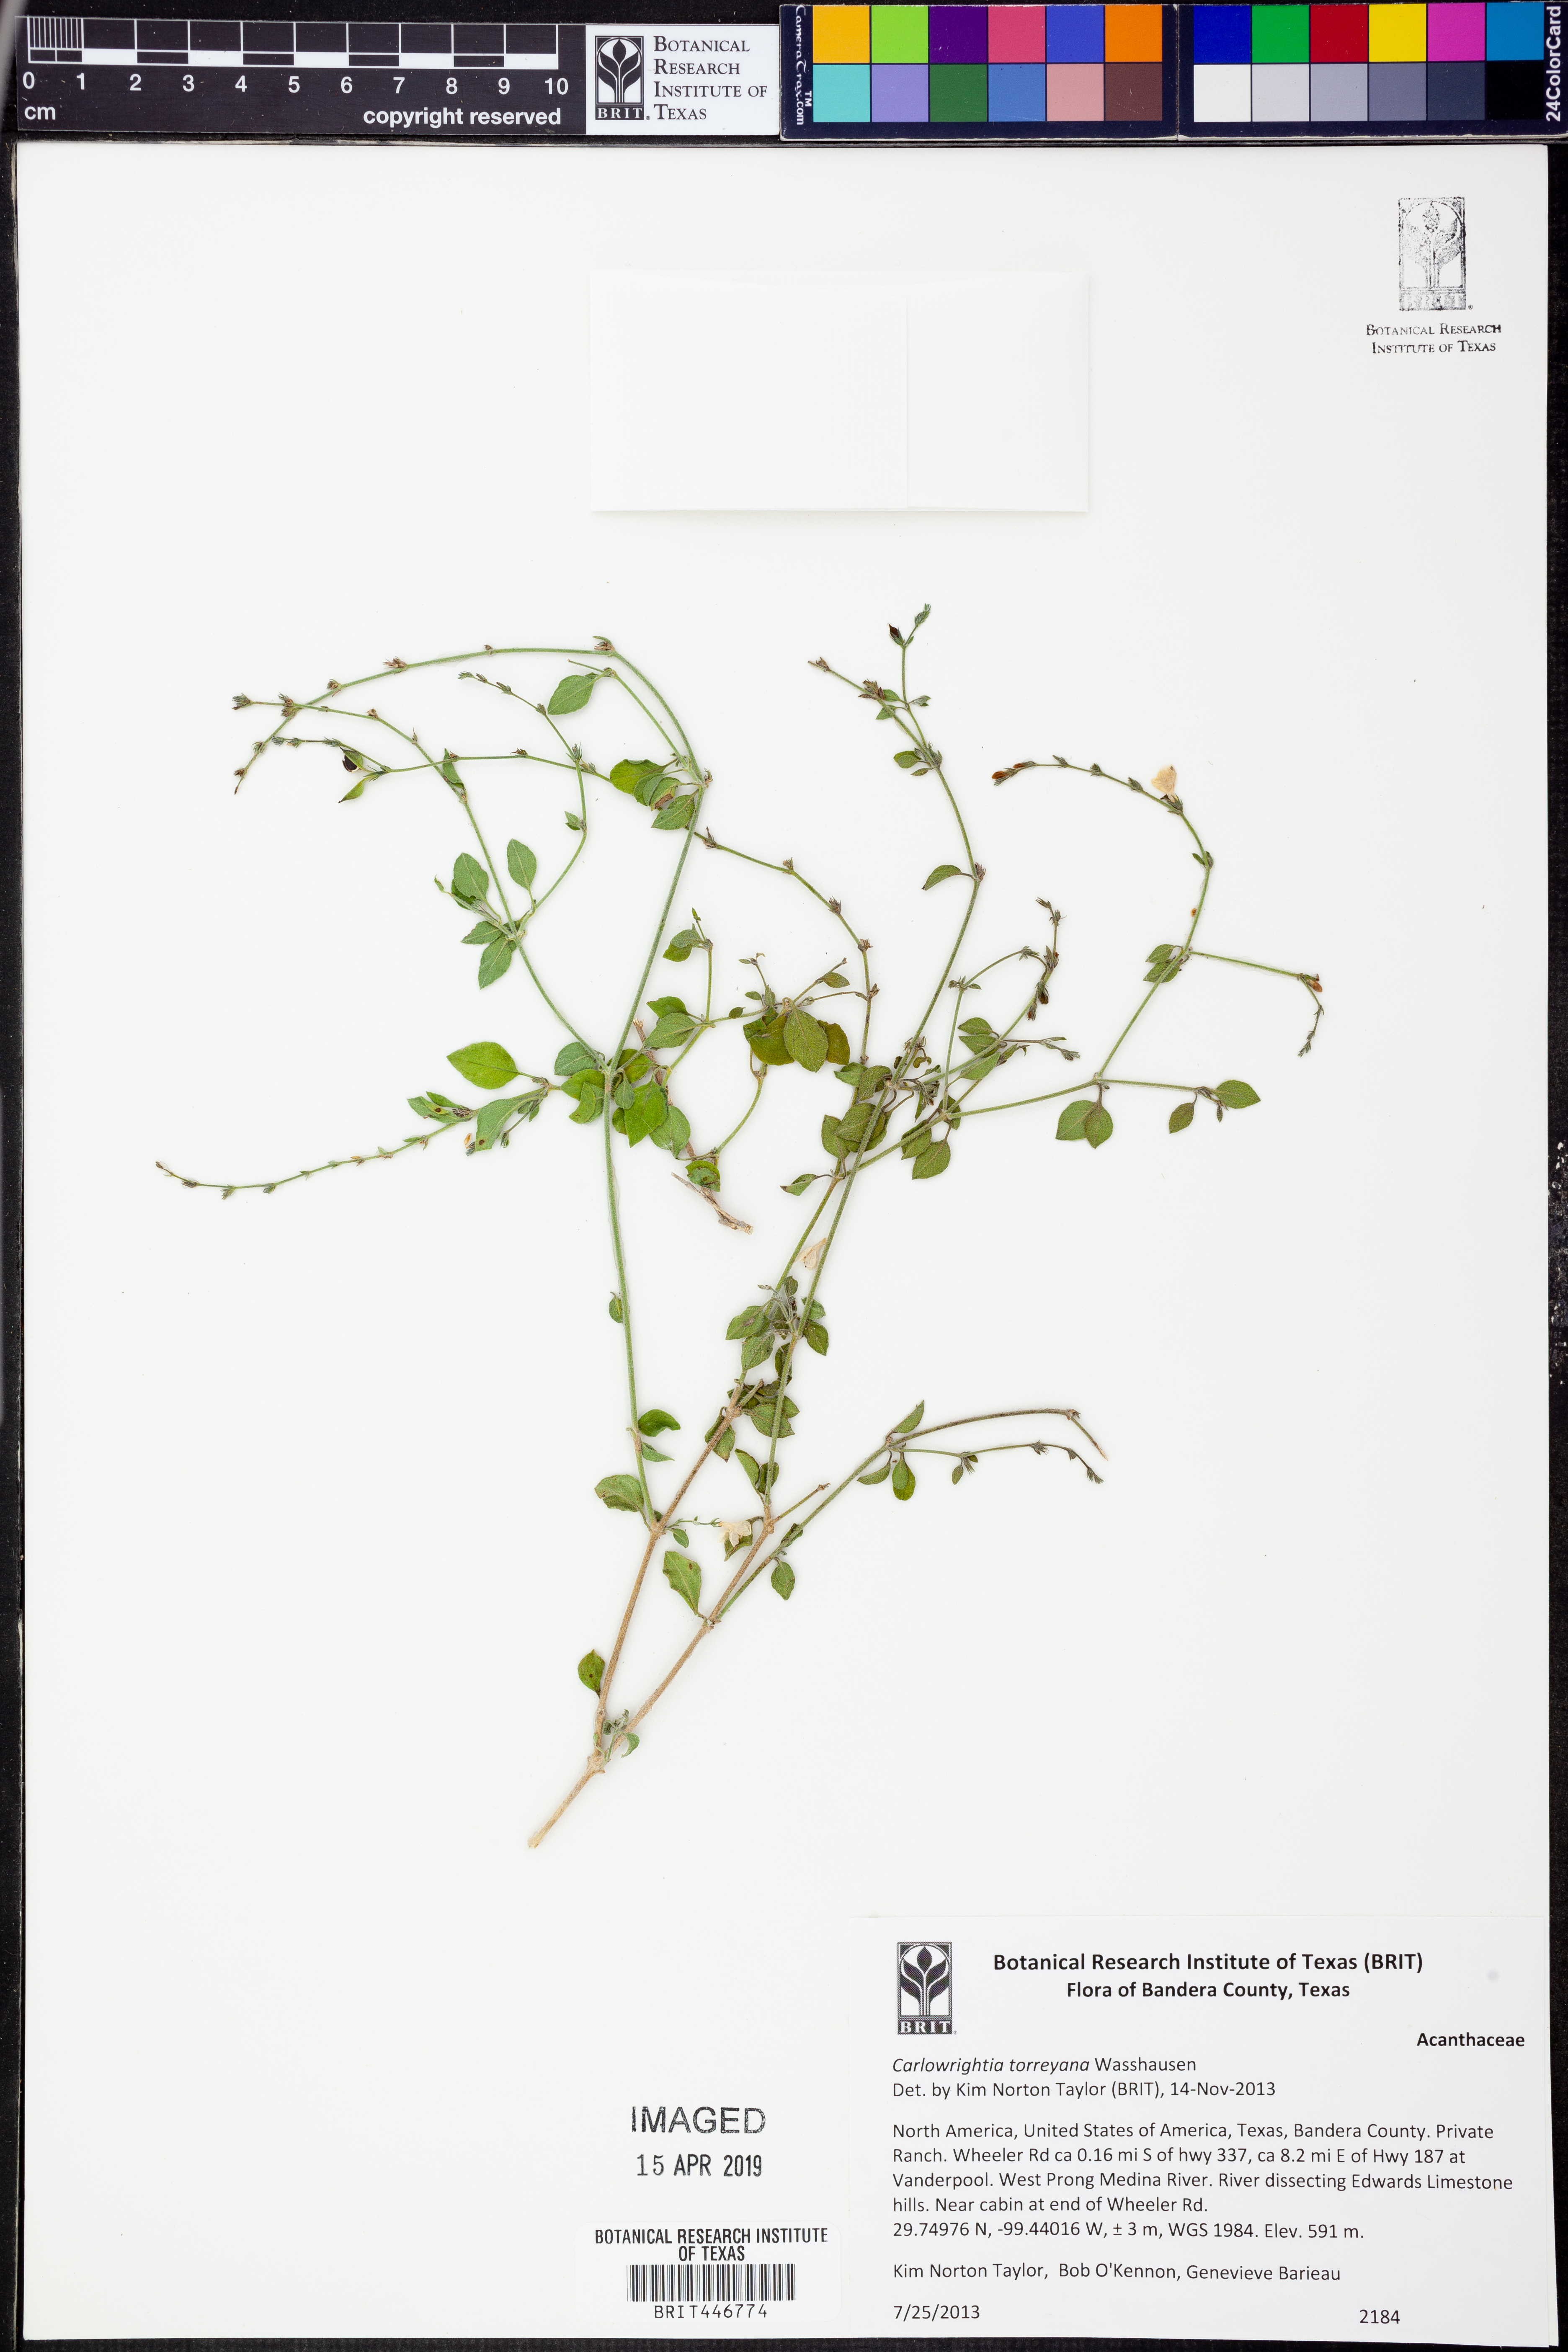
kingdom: Plantae
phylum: Tracheophyta
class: Magnoliopsida
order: Lamiales
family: Acanthaceae
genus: Carlowrightia
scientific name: Carlowrightia torreyana
